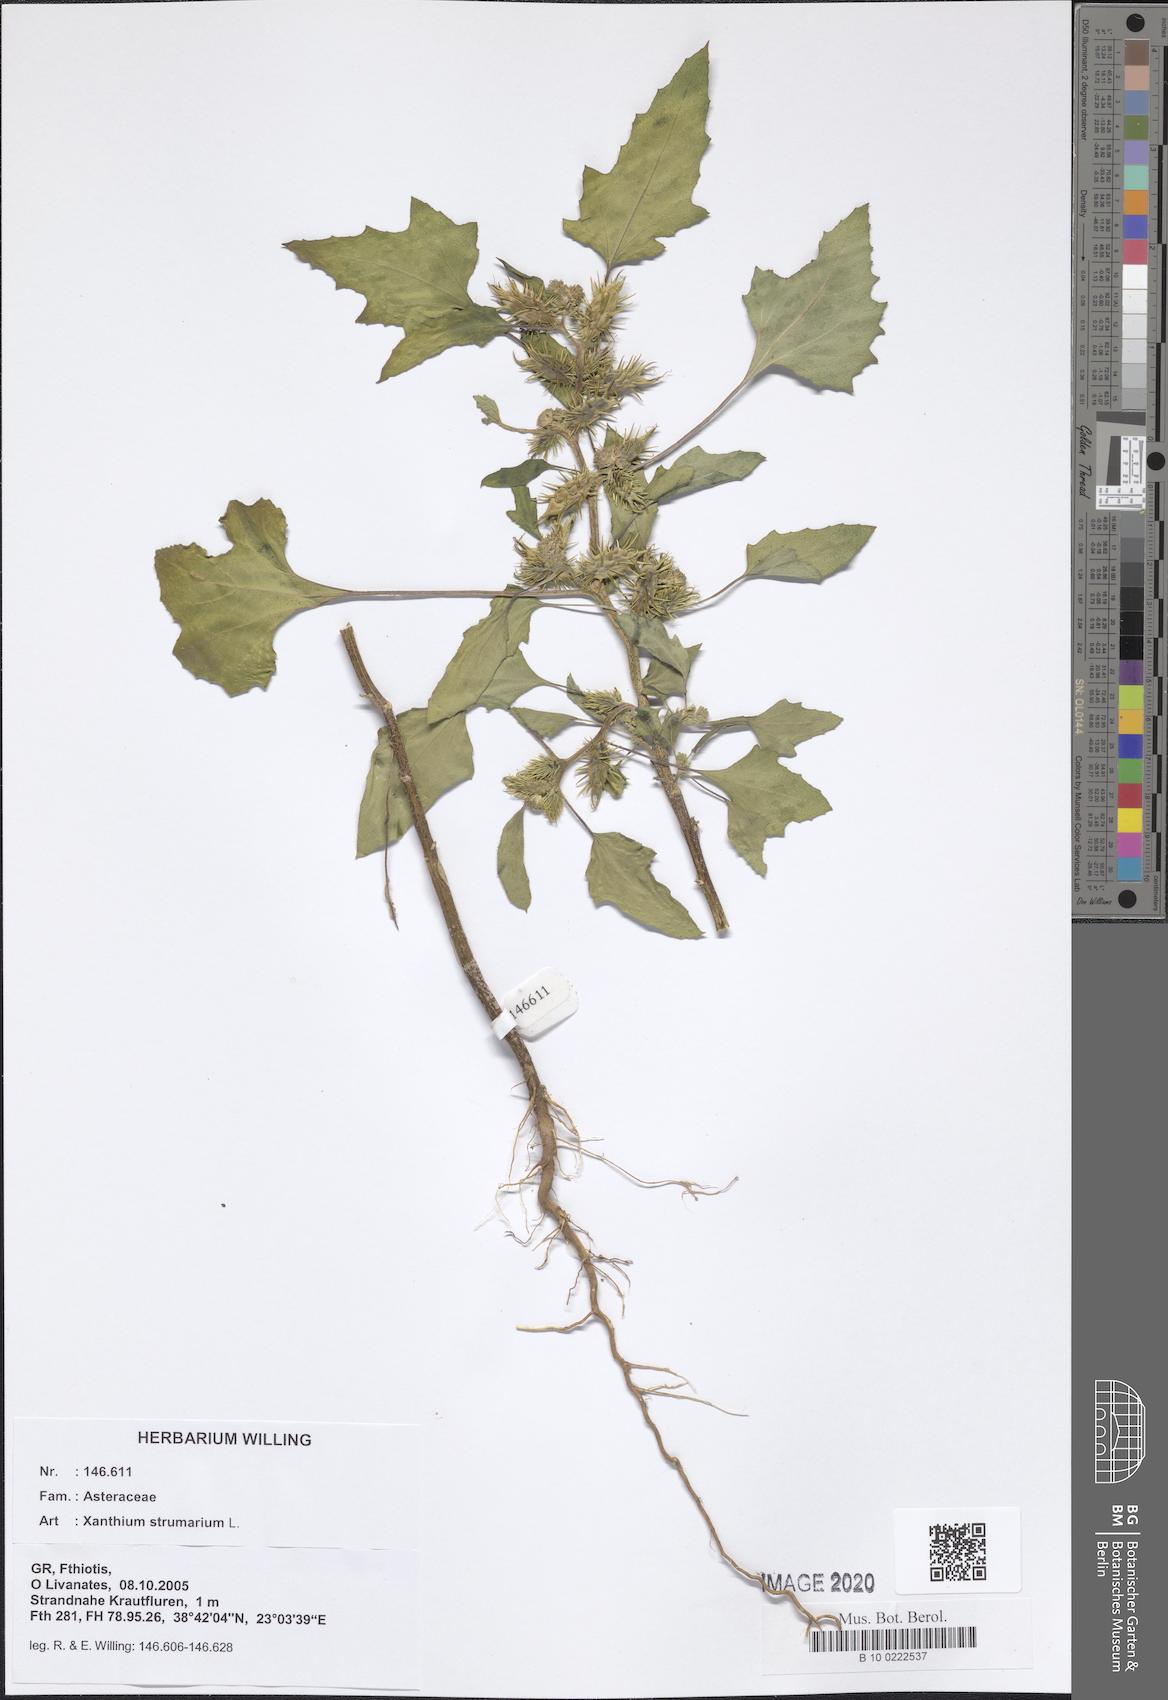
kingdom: Plantae
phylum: Tracheophyta
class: Magnoliopsida
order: Asterales
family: Asteraceae
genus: Xanthium
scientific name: Xanthium strumarium
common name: Rough cocklebur
